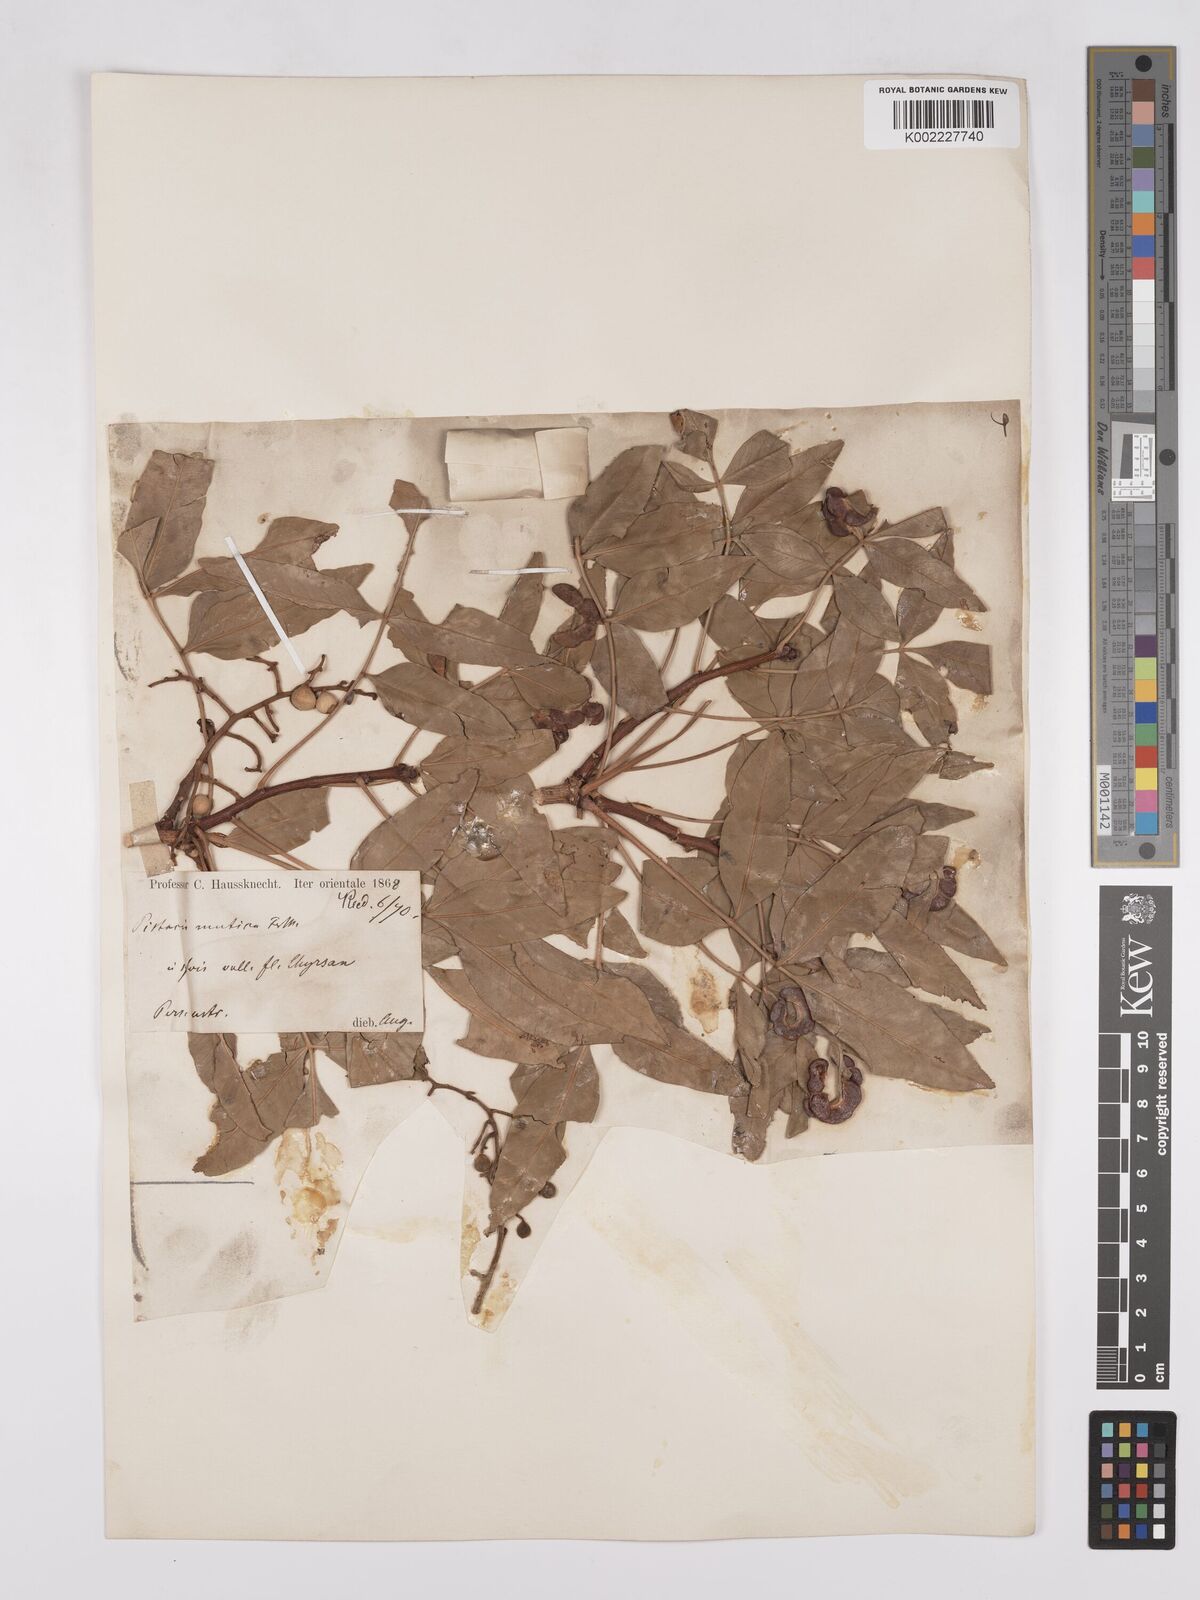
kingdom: Plantae
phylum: Tracheophyta
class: Magnoliopsida
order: Sapindales
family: Anacardiaceae
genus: Pistacia
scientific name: Pistacia khinjuk
